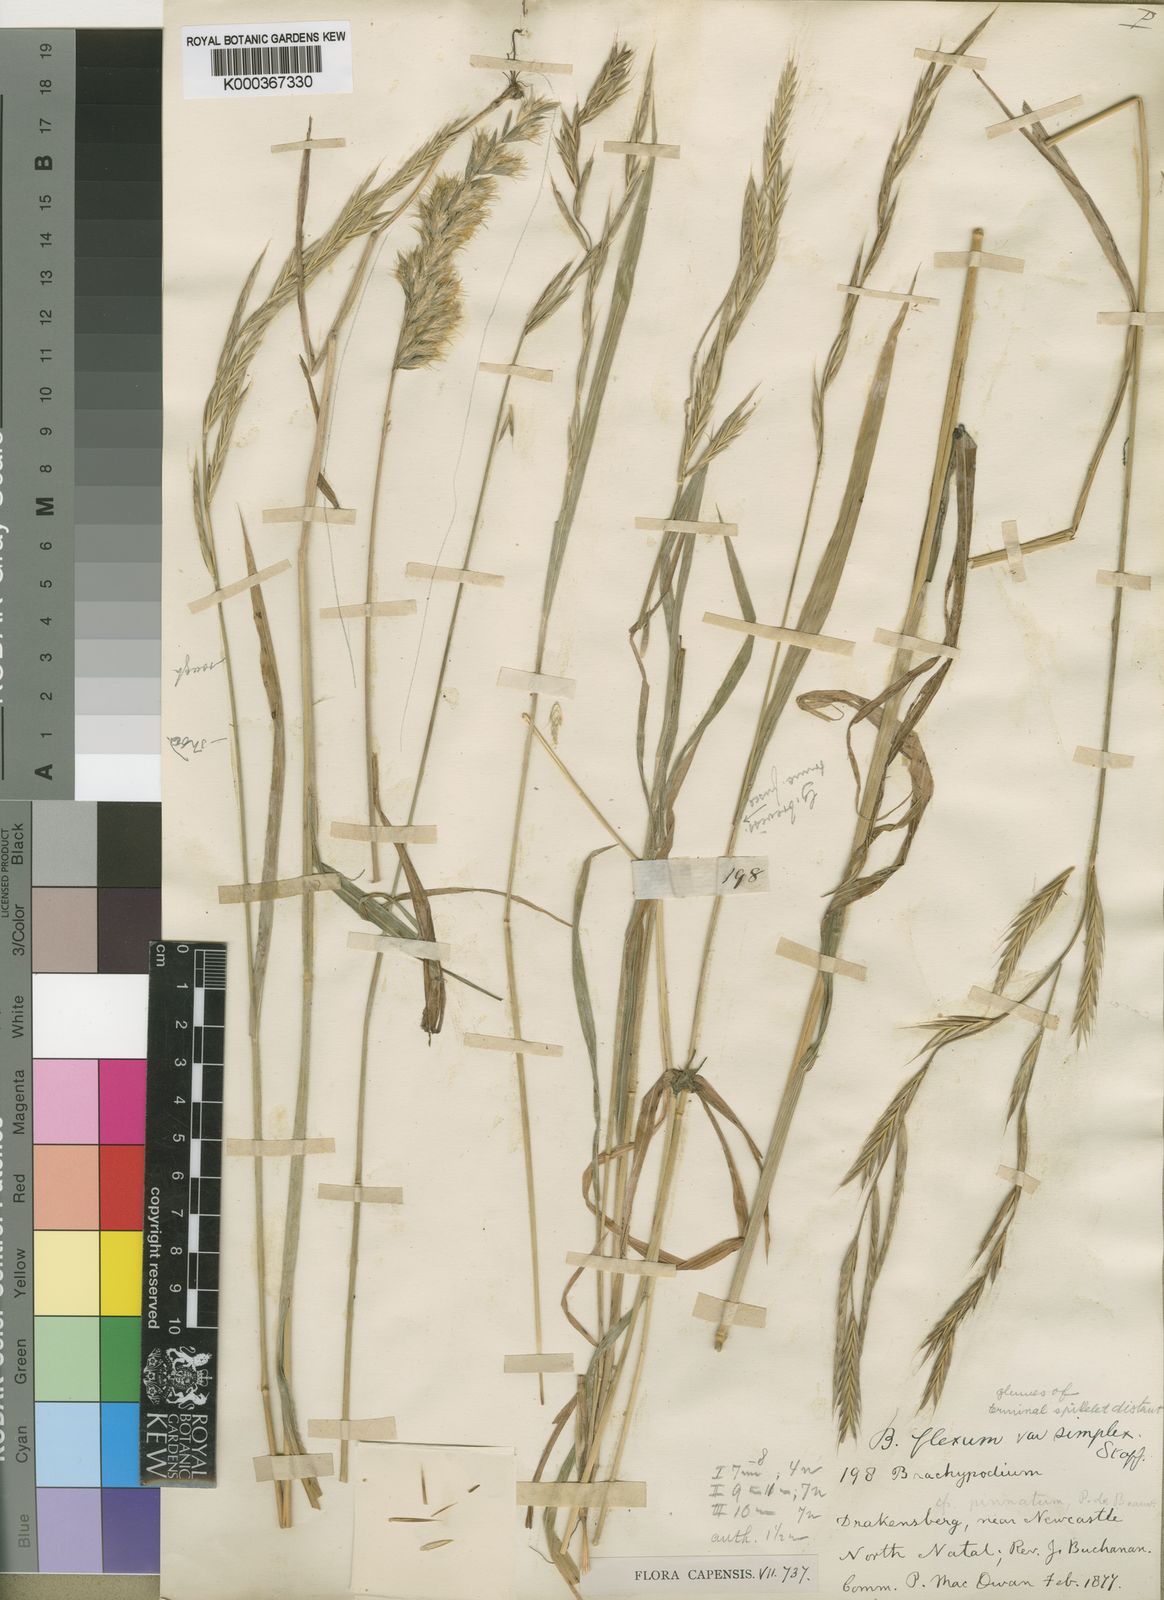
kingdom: Plantae
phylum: Tracheophyta
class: Liliopsida
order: Poales
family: Poaceae
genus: Brachypodium
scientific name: Brachypodium flexum
